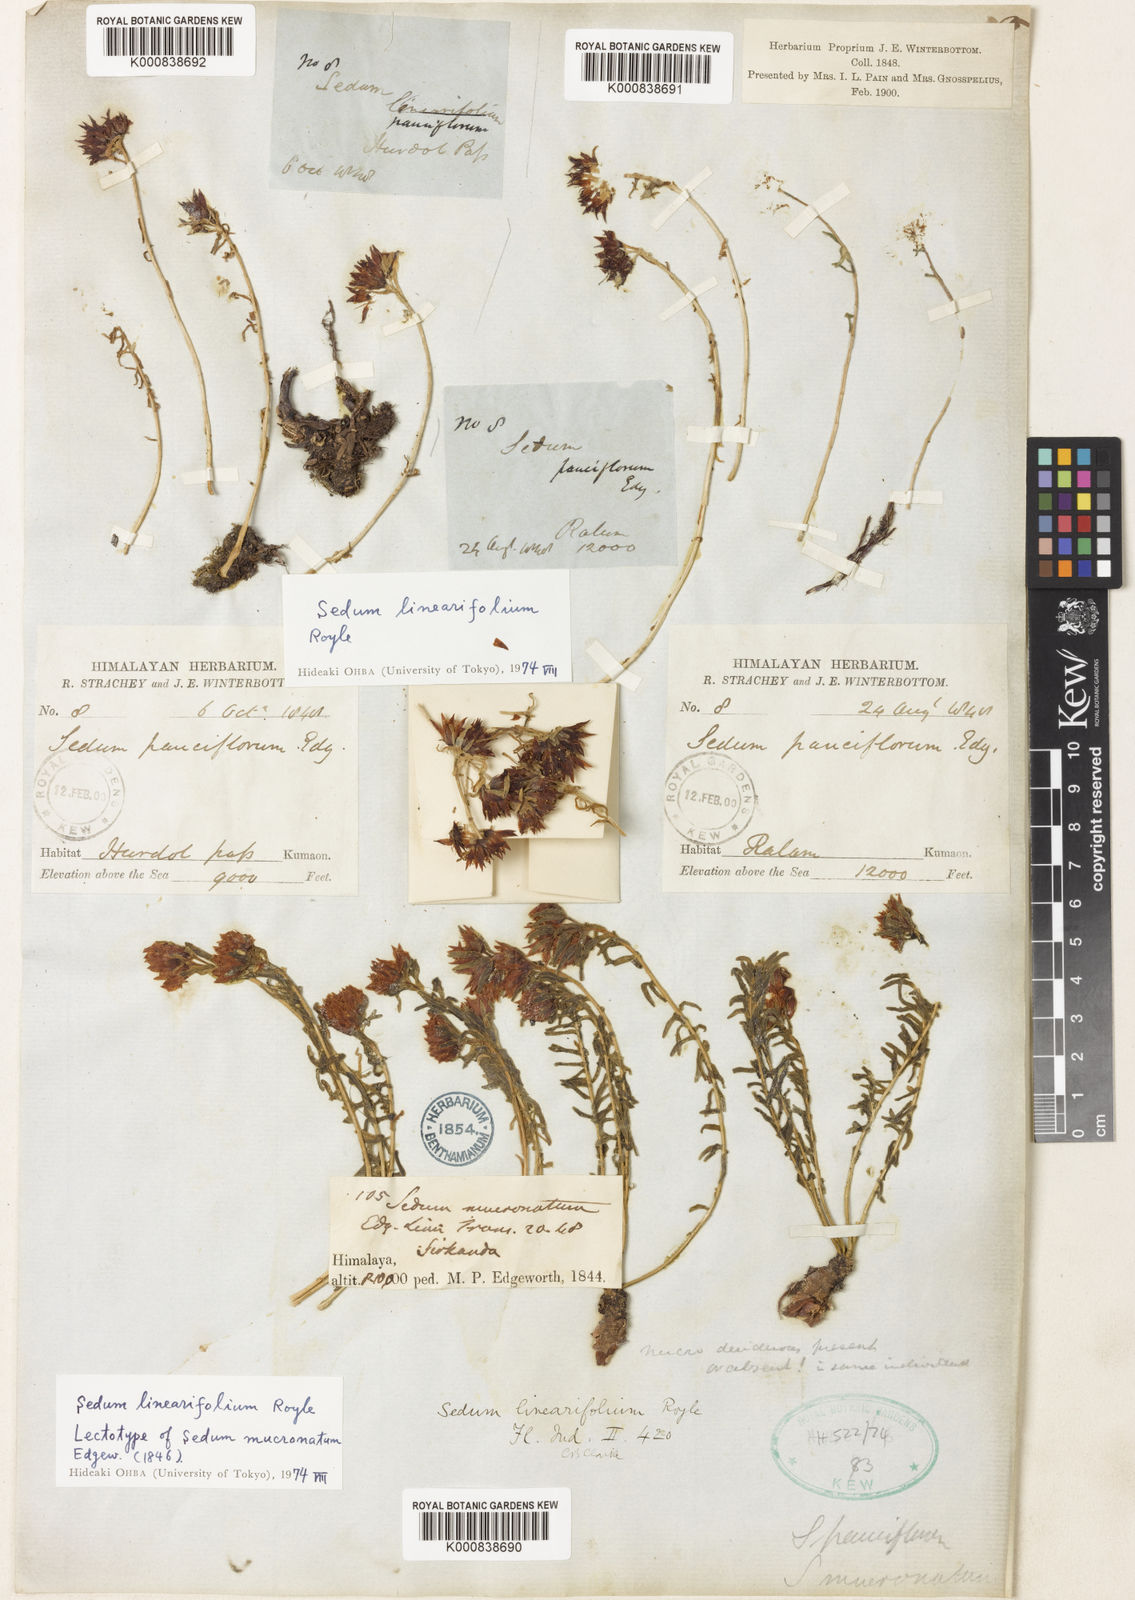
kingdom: Plantae
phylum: Tracheophyta
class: Magnoliopsida
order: Saxifragales
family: Crassulaceae
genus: Rhodiola
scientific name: Rhodiola sinuata
